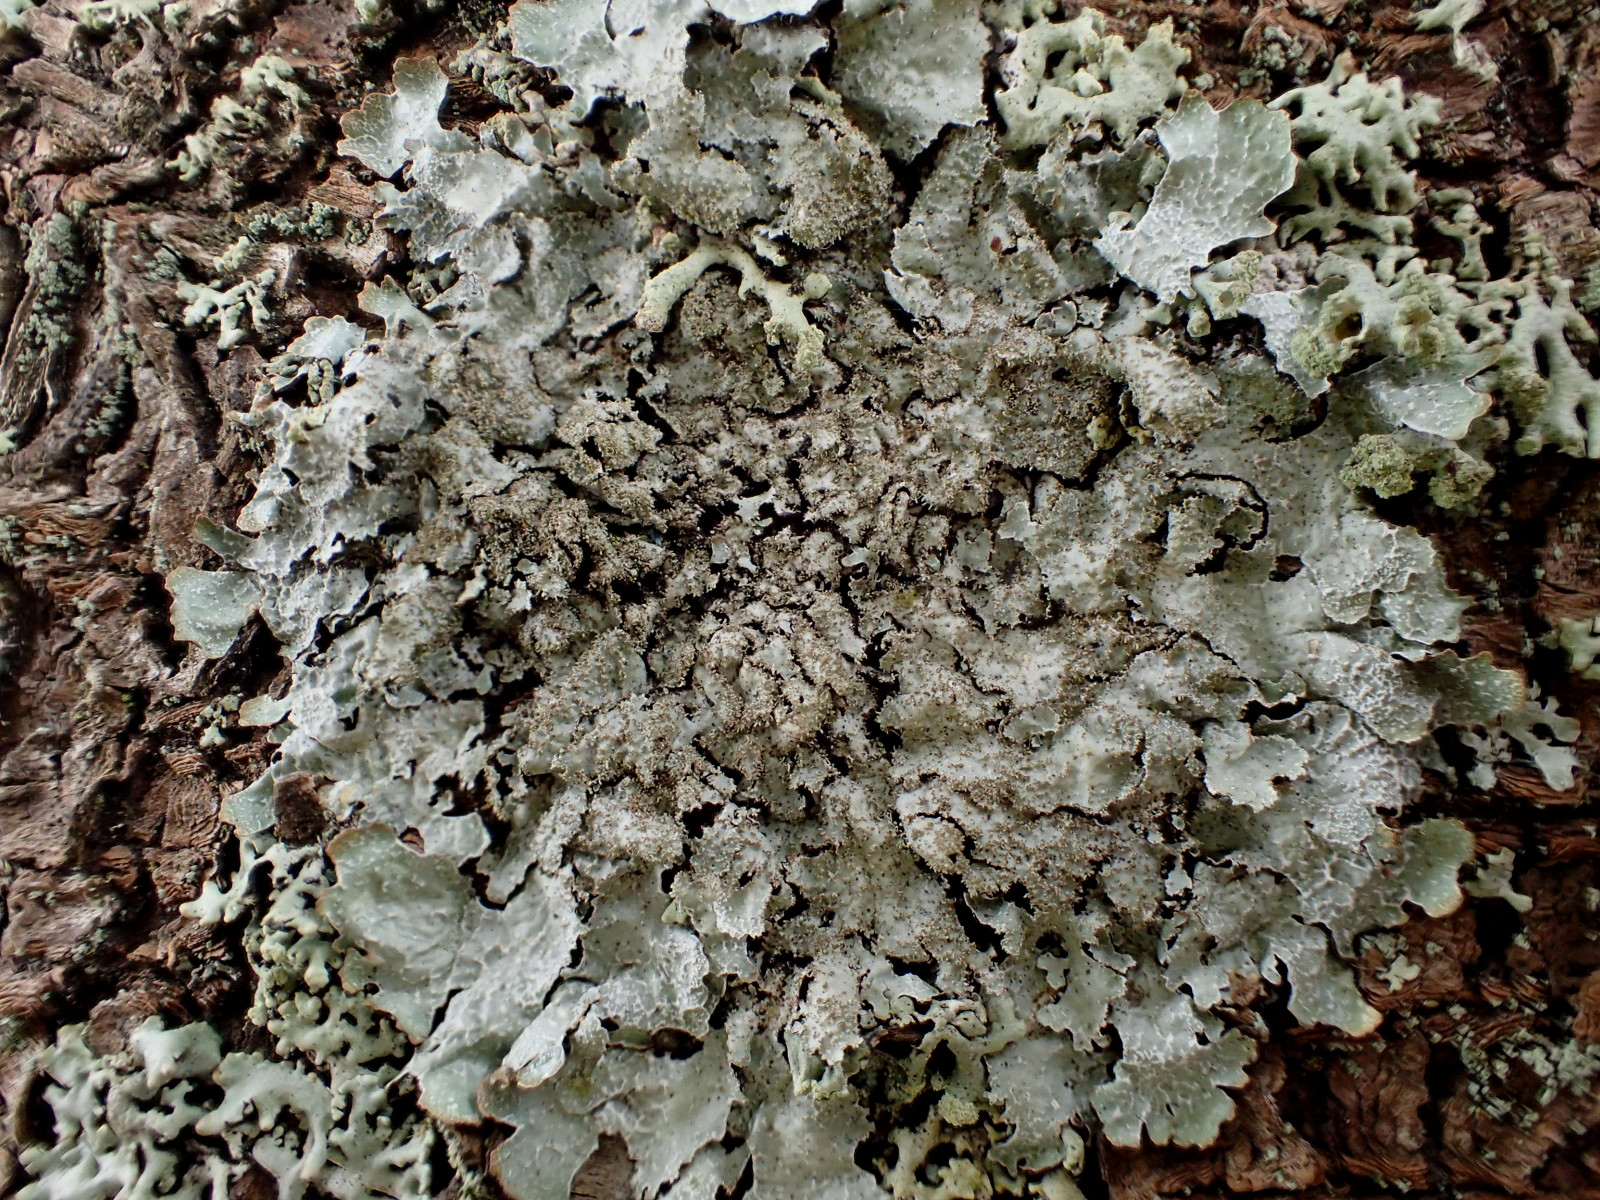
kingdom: Fungi
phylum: Ascomycota
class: Lecanoromycetes
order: Lecanorales
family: Parmeliaceae
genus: Parmelia
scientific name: Parmelia saxatilis
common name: farve-skållav
